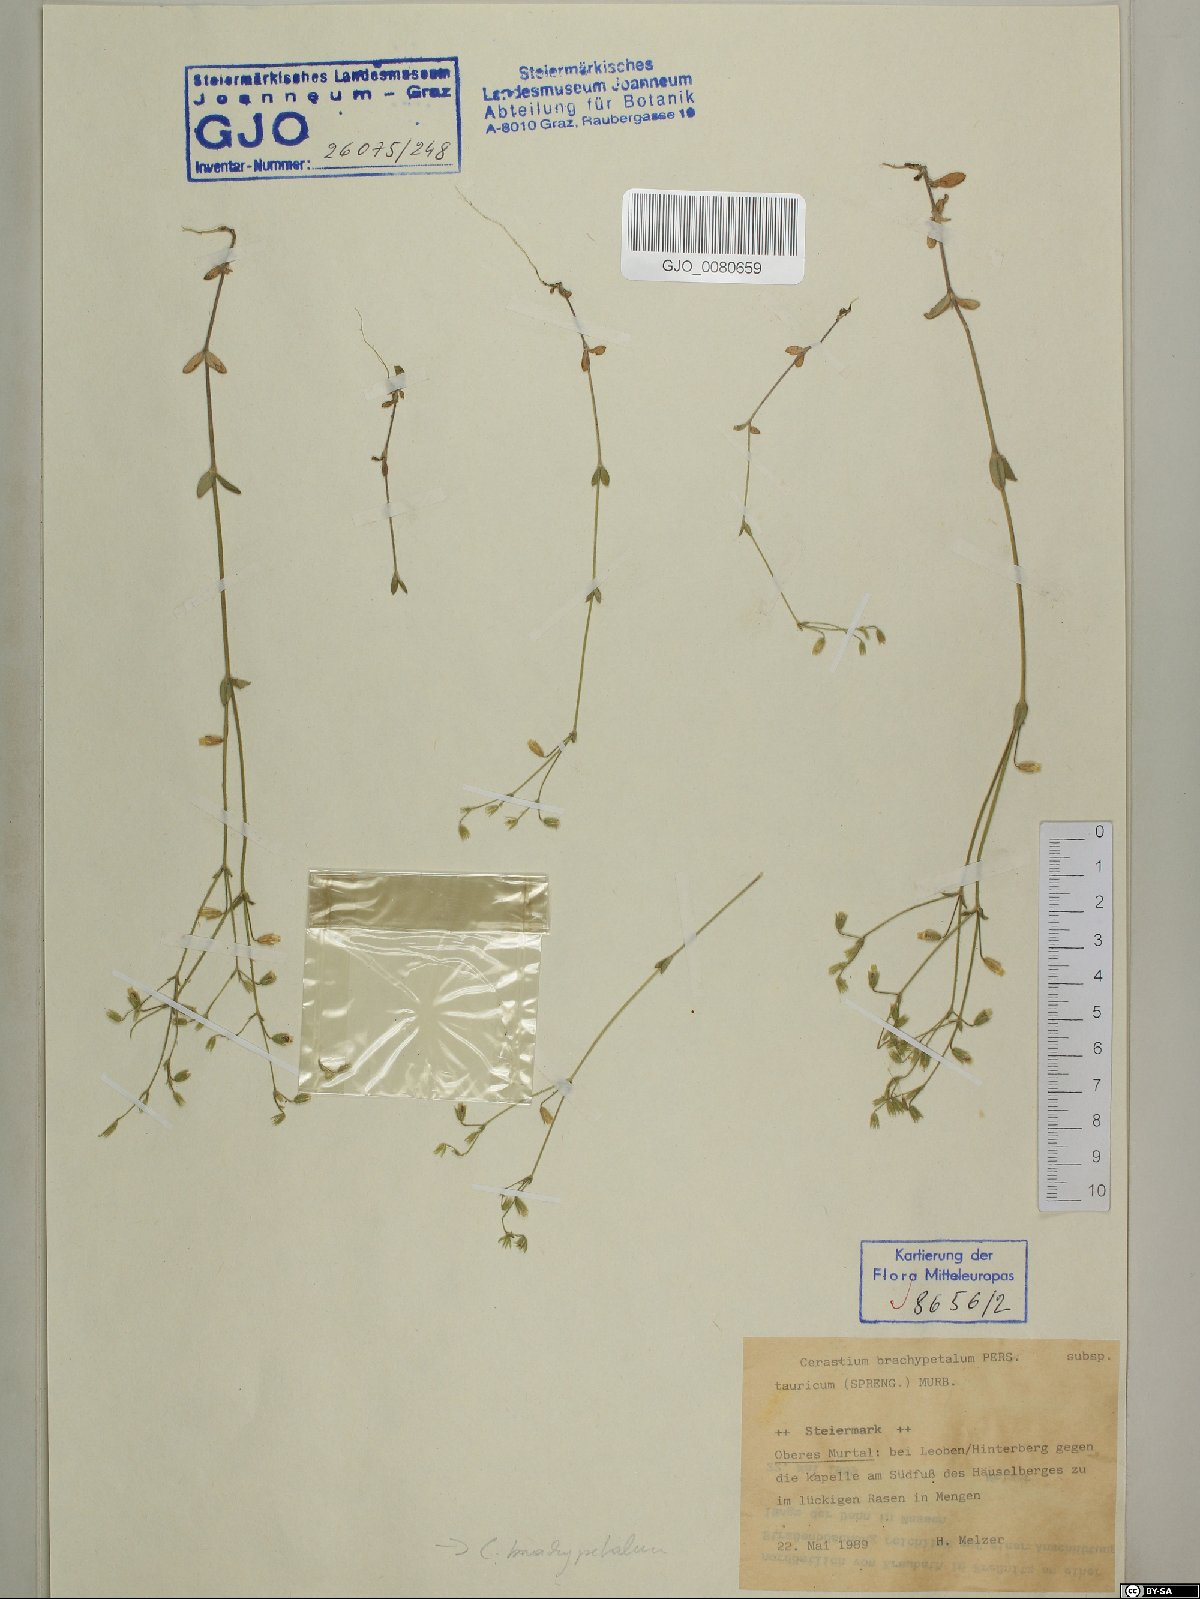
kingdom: Plantae
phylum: Tracheophyta
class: Magnoliopsida
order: Caryophyllales
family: Caryophyllaceae
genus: Cerastium
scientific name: Cerastium brachypetalum
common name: Grey mouse-ear
